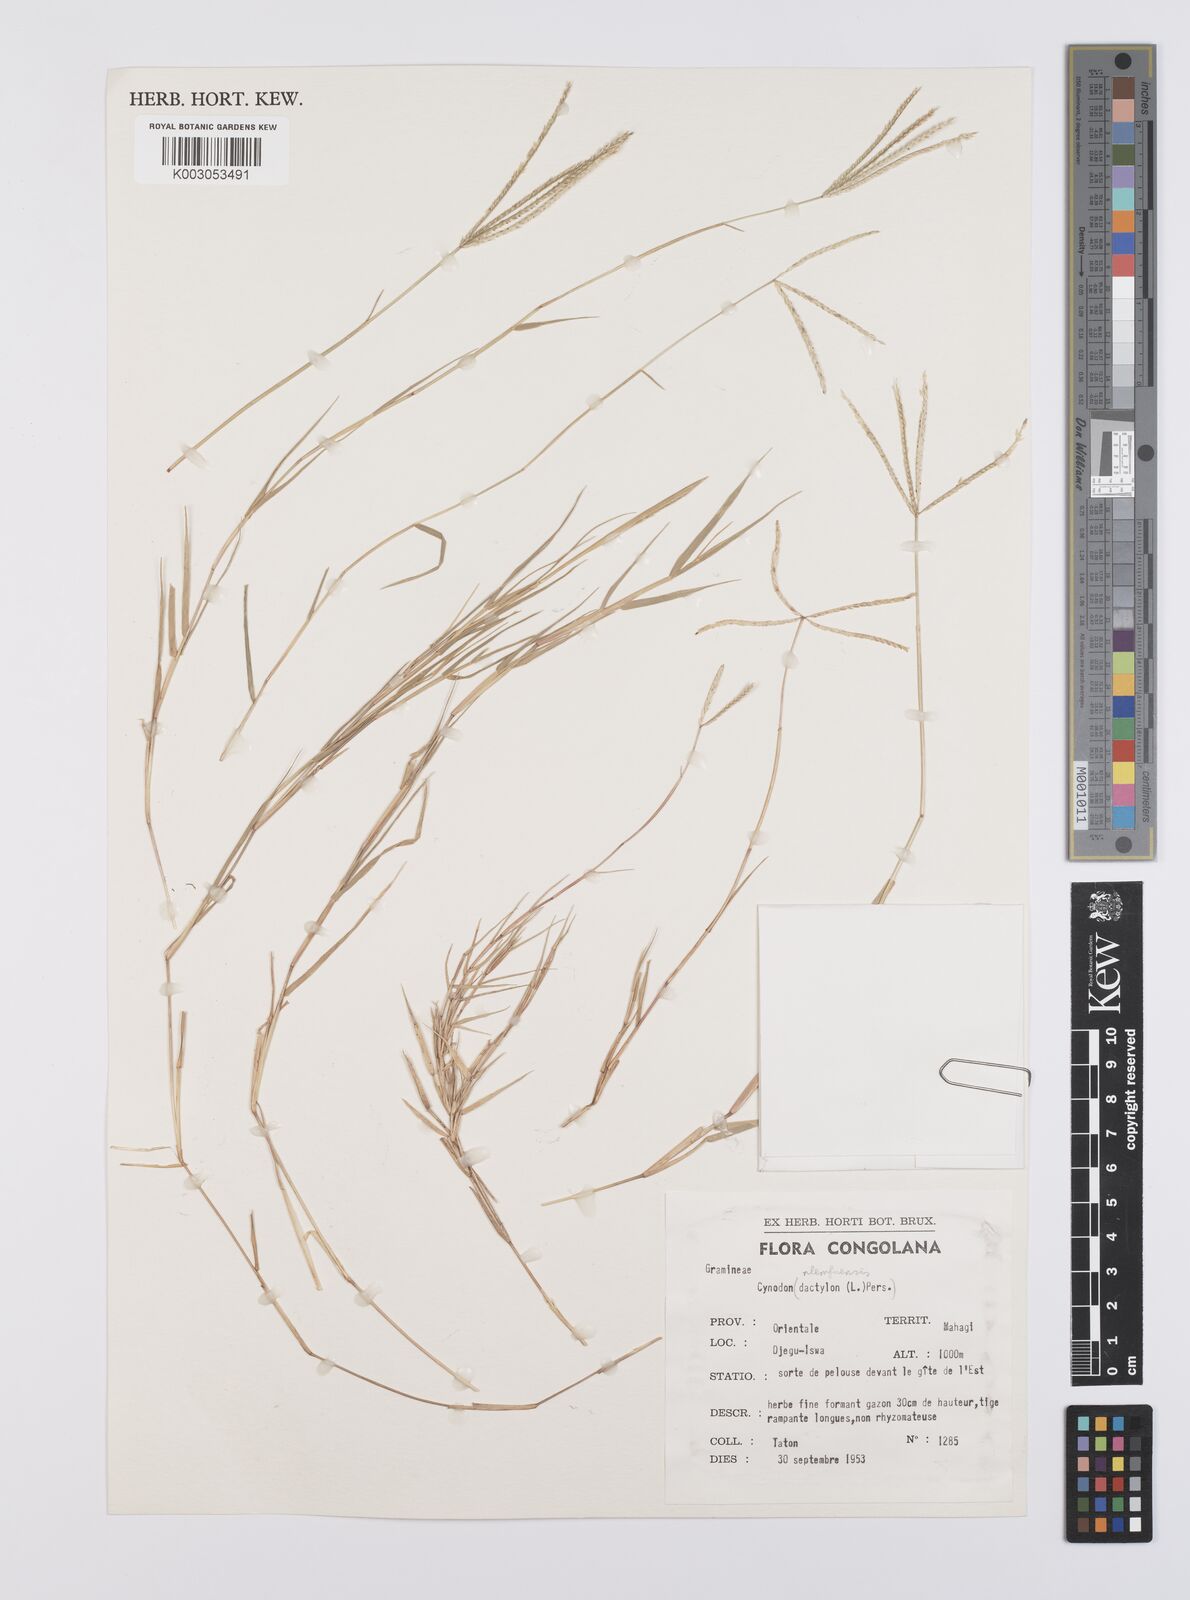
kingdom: Plantae
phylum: Tracheophyta
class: Liliopsida
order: Poales
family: Poaceae
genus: Cynodon
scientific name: Cynodon nlemfuensis
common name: African bermudagrass
